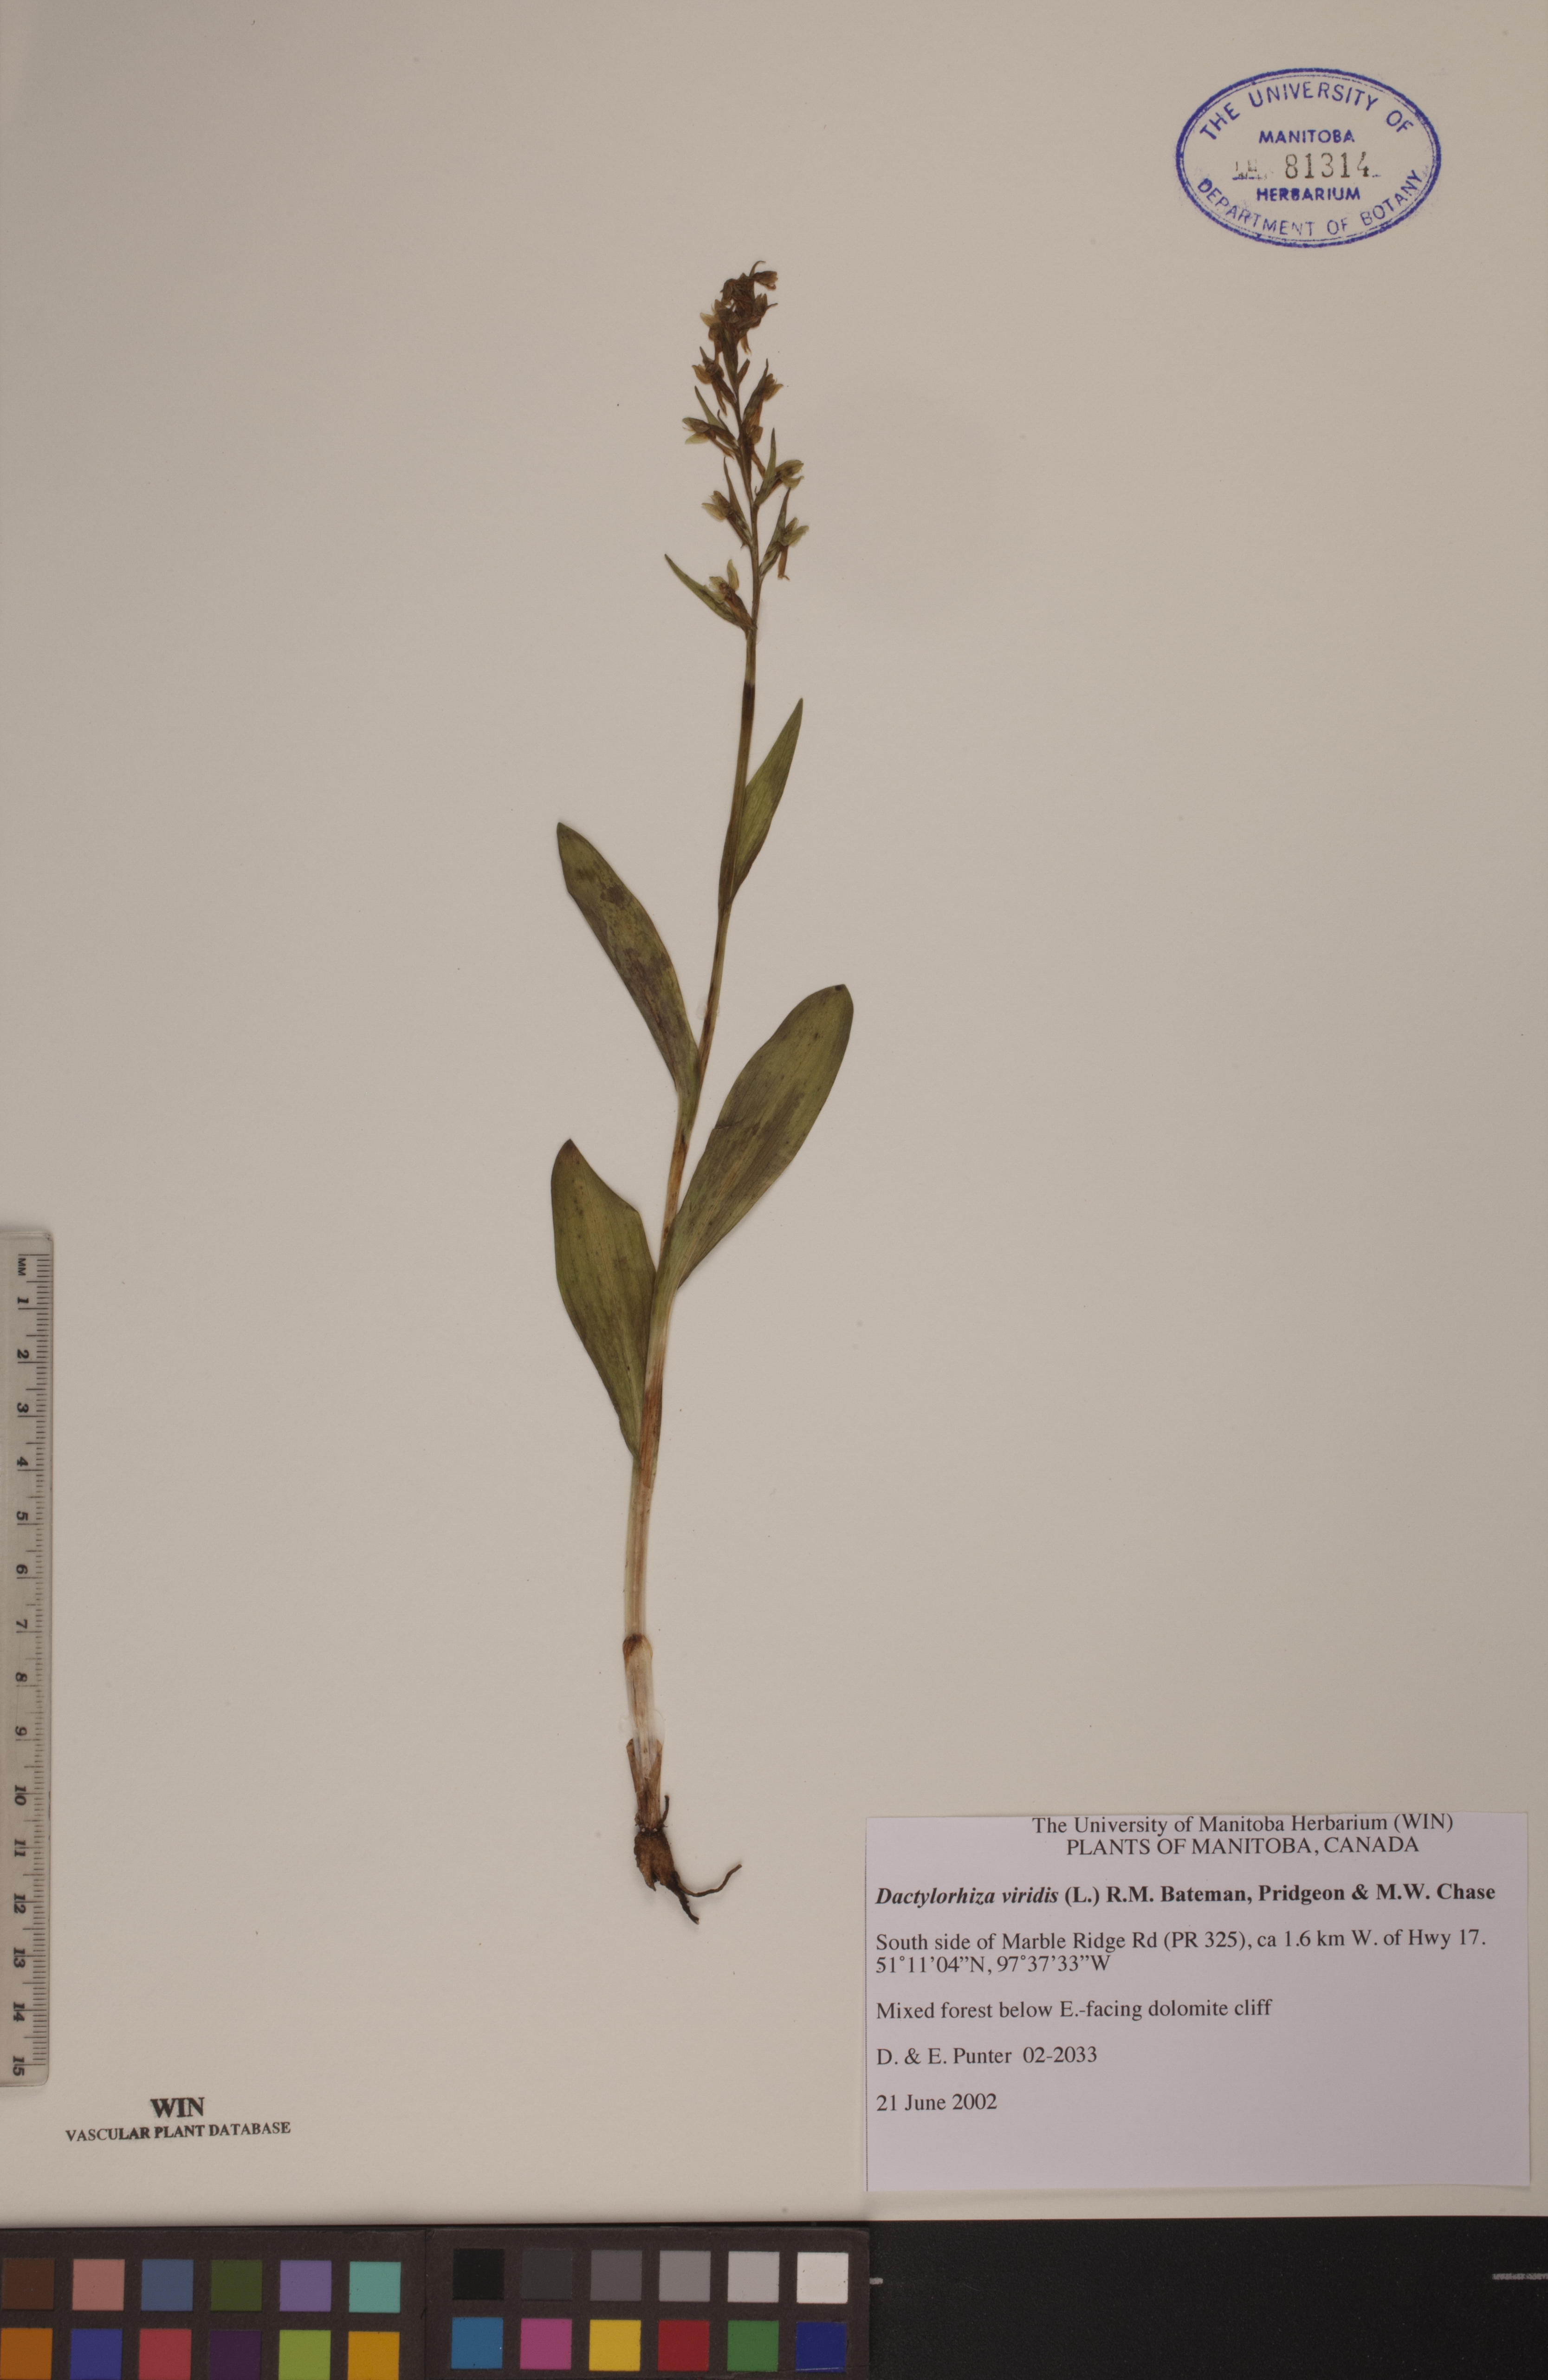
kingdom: Plantae
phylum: Tracheophyta
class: Liliopsida
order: Asparagales
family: Orchidaceae
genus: Dactylorhiza
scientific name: Dactylorhiza viridis
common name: Longbract frog orchid
